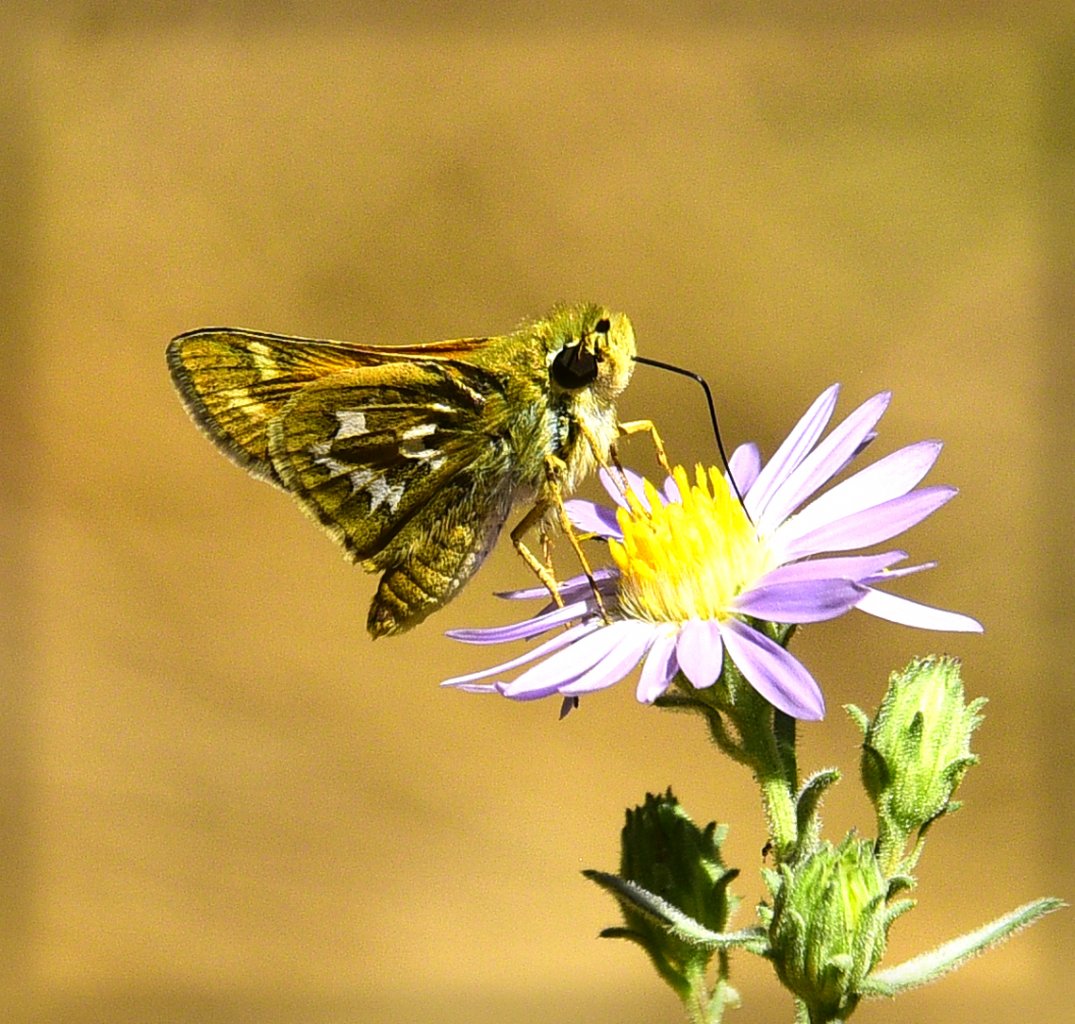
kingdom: Animalia
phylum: Arthropoda
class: Insecta
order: Lepidoptera
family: Hesperiidae
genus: Hesperia
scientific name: Hesperia juba
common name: Juba Skipper
